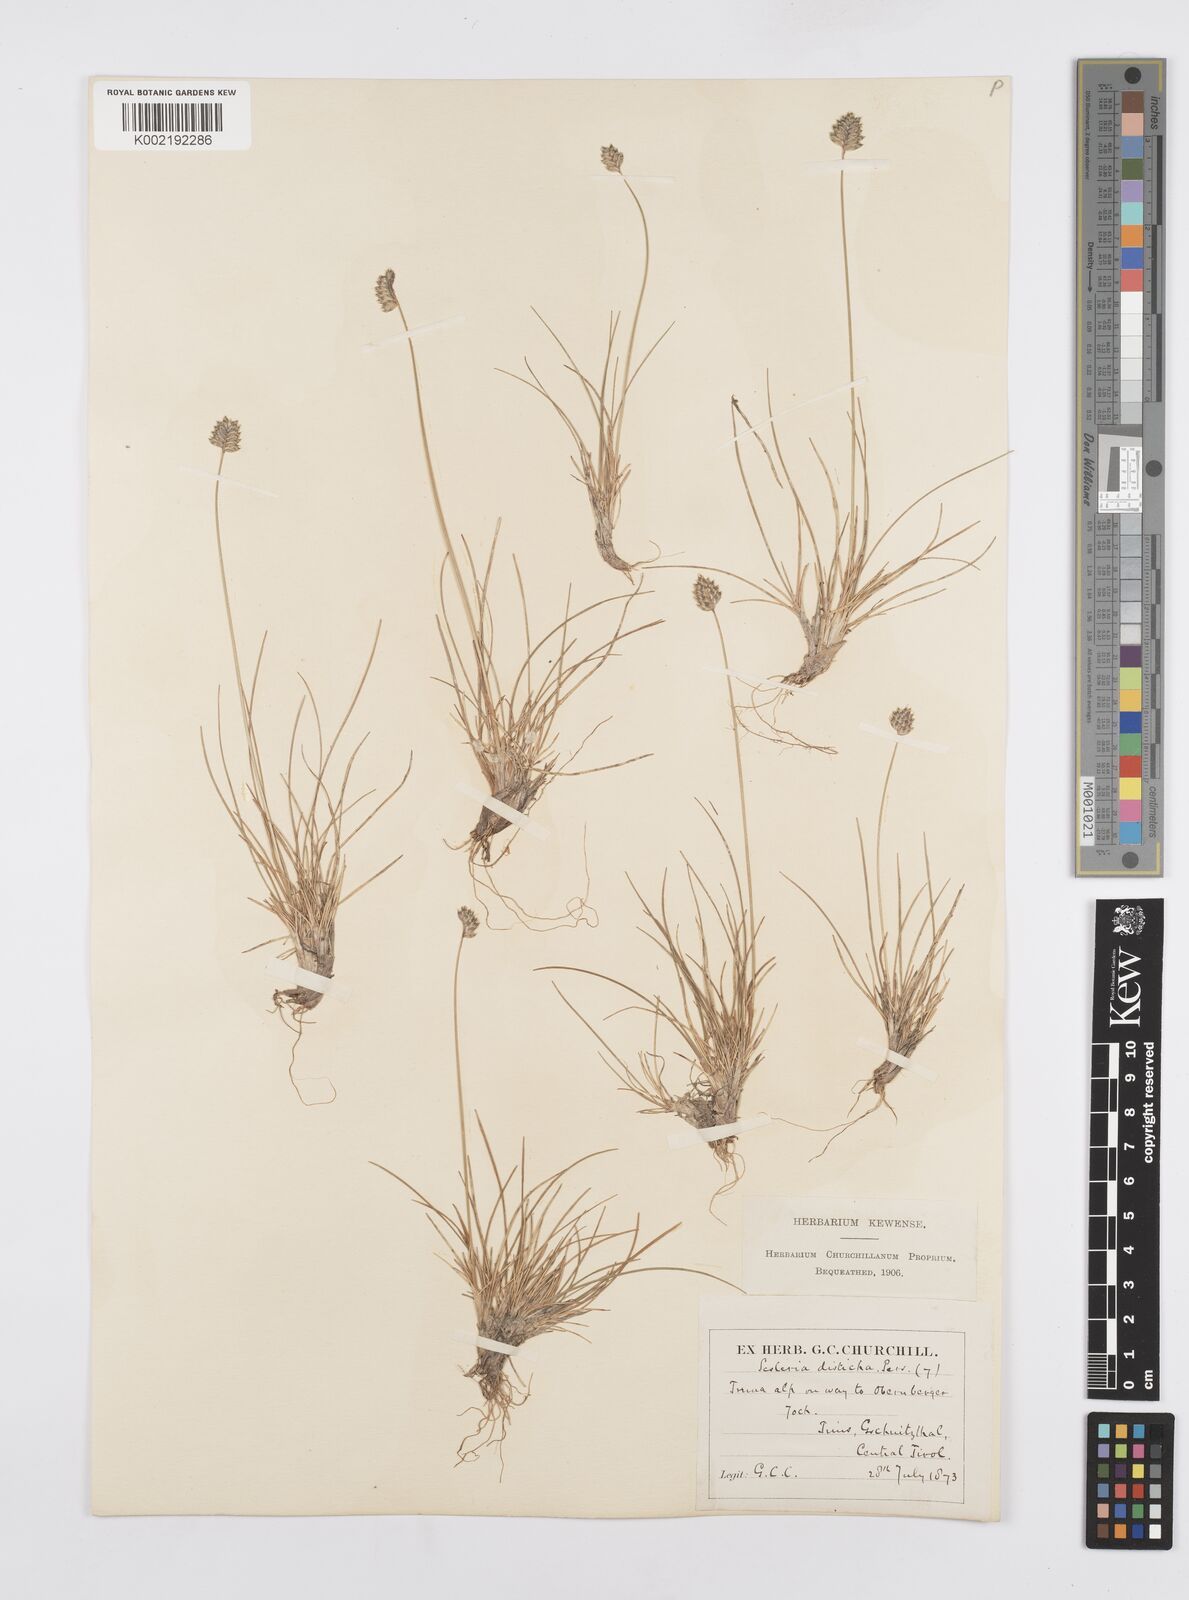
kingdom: Plantae
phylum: Tracheophyta
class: Liliopsida
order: Poales
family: Poaceae
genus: Oreochloa
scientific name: Oreochloa disticha
